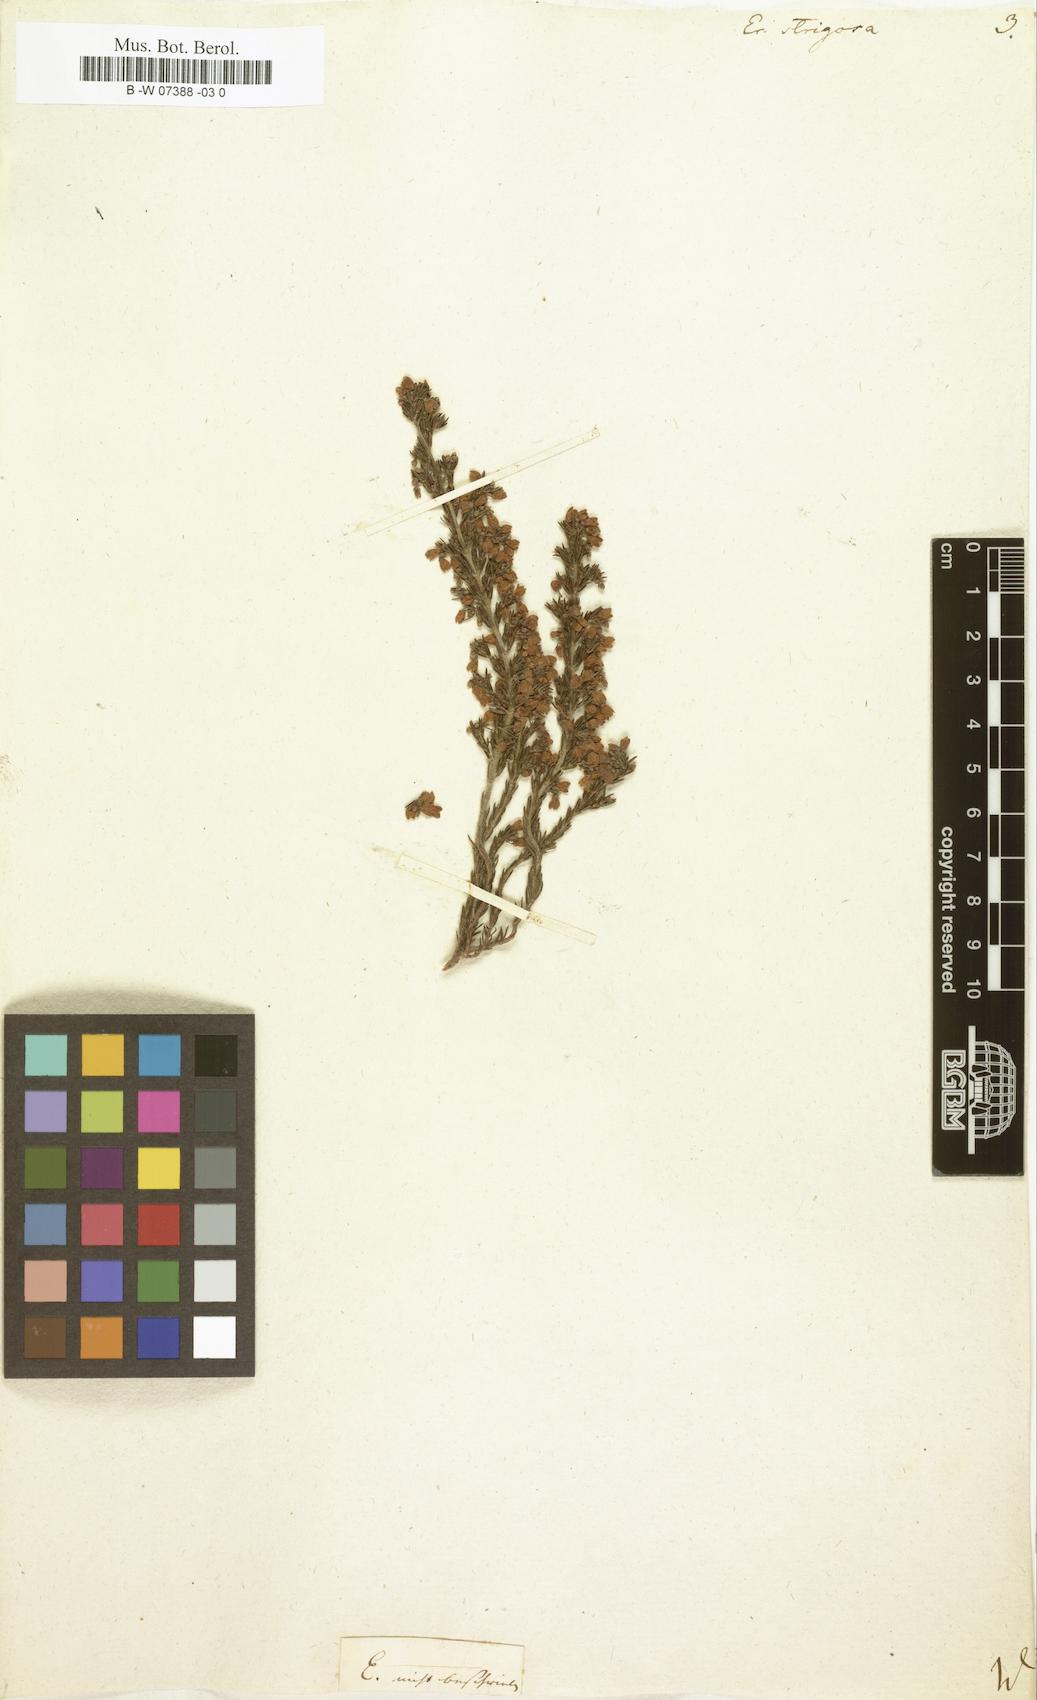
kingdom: Plantae
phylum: Tracheophyta
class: Magnoliopsida
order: Ericales
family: Ericaceae
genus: Erica
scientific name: Erica strigosa
